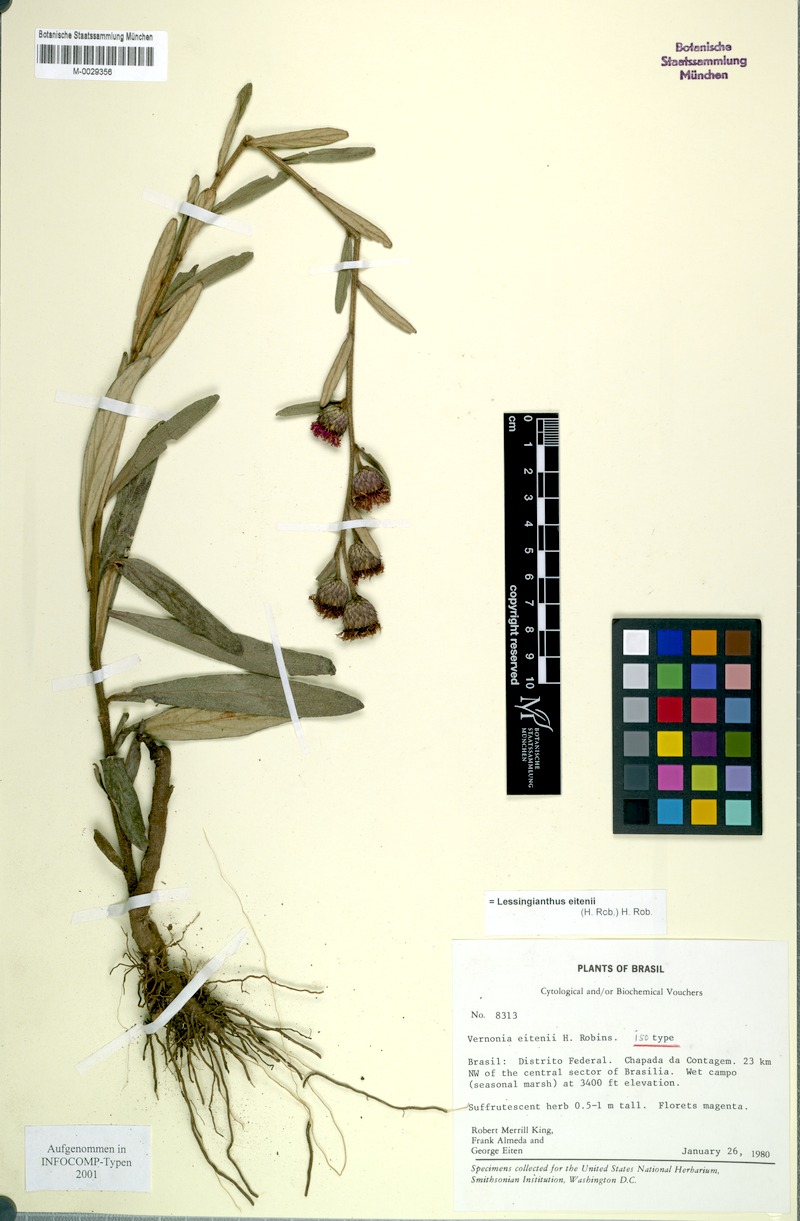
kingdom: Plantae
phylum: Tracheophyta
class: Magnoliopsida
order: Asterales
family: Asteraceae
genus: Lessingianthus
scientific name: Lessingianthus eitenii
